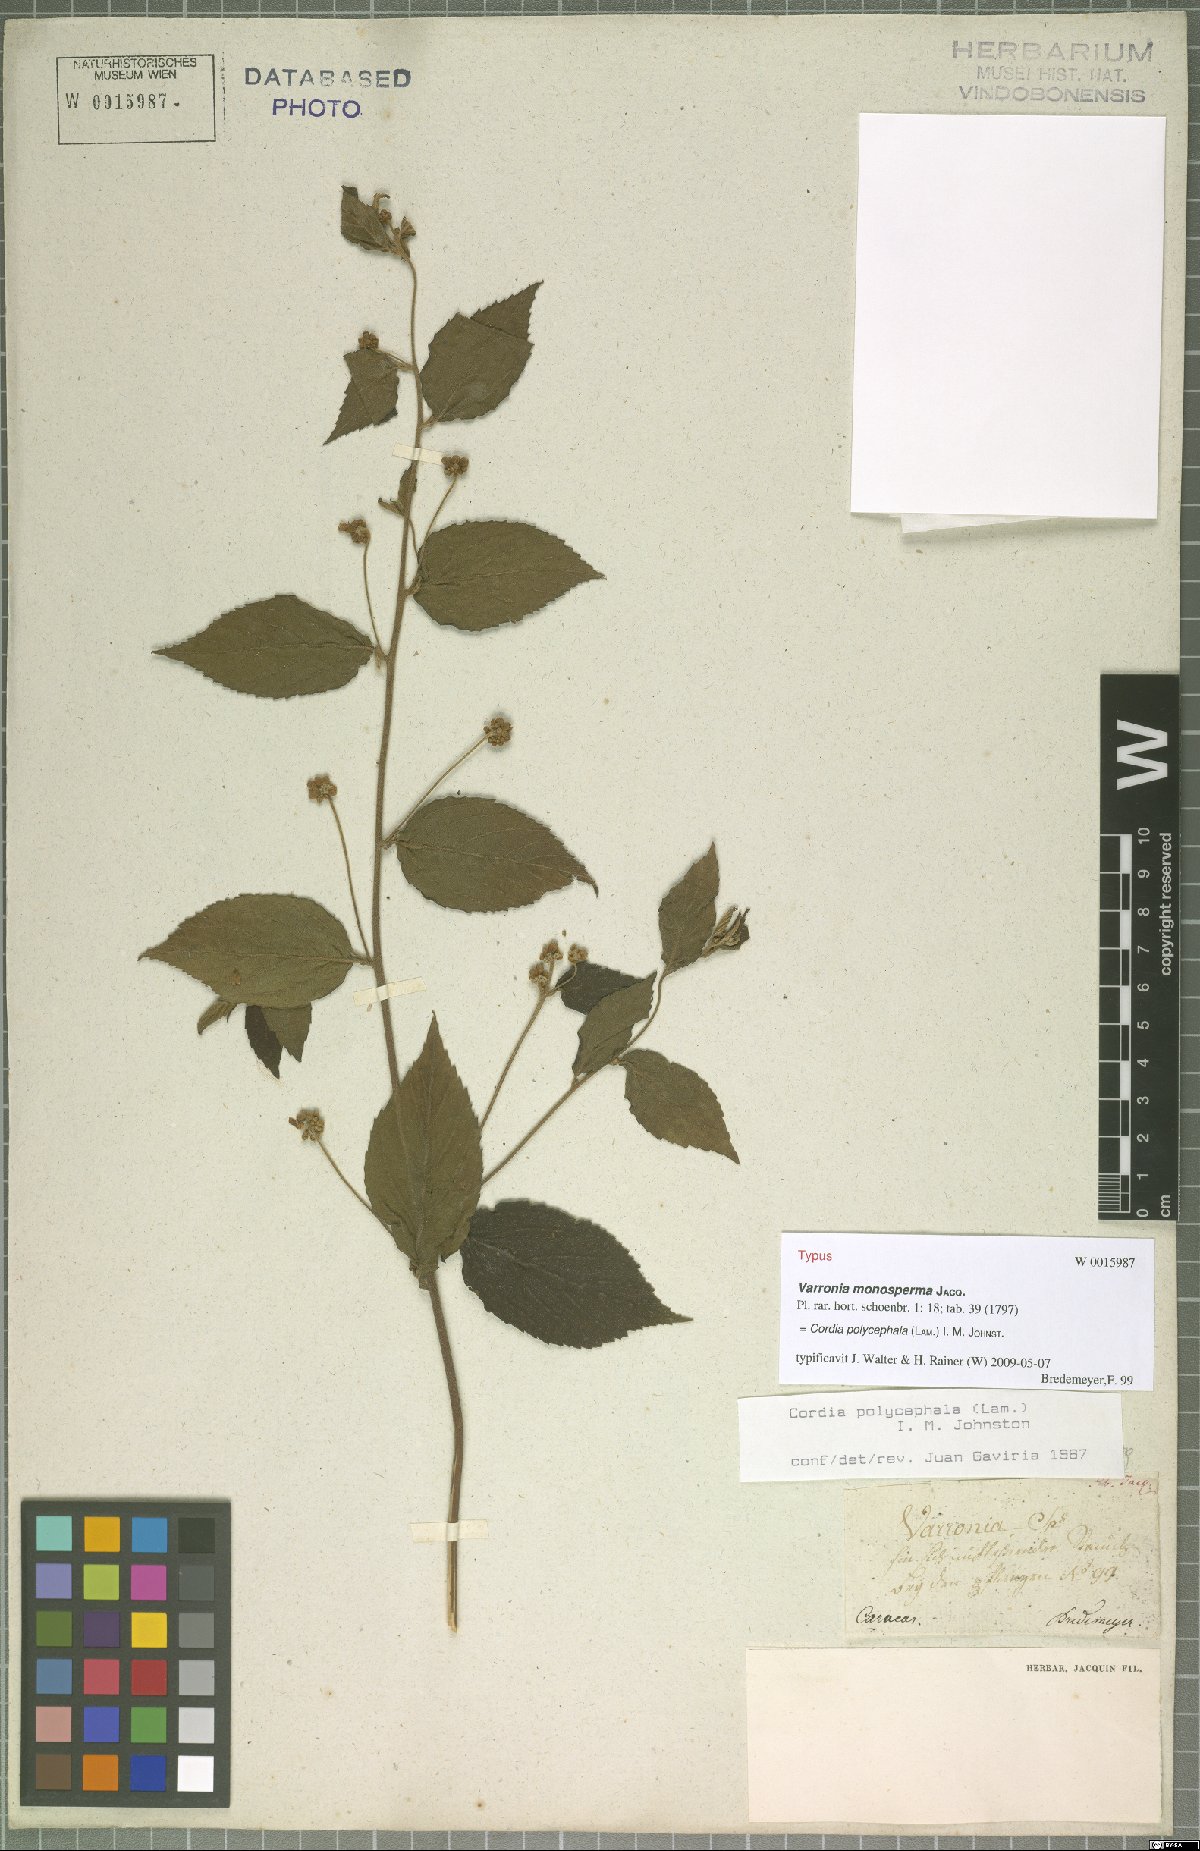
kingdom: Plantae
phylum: Tracheophyta
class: Magnoliopsida
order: Boraginales
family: Cordiaceae
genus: Varronia
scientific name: Varronia polycephala
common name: Black-sage
